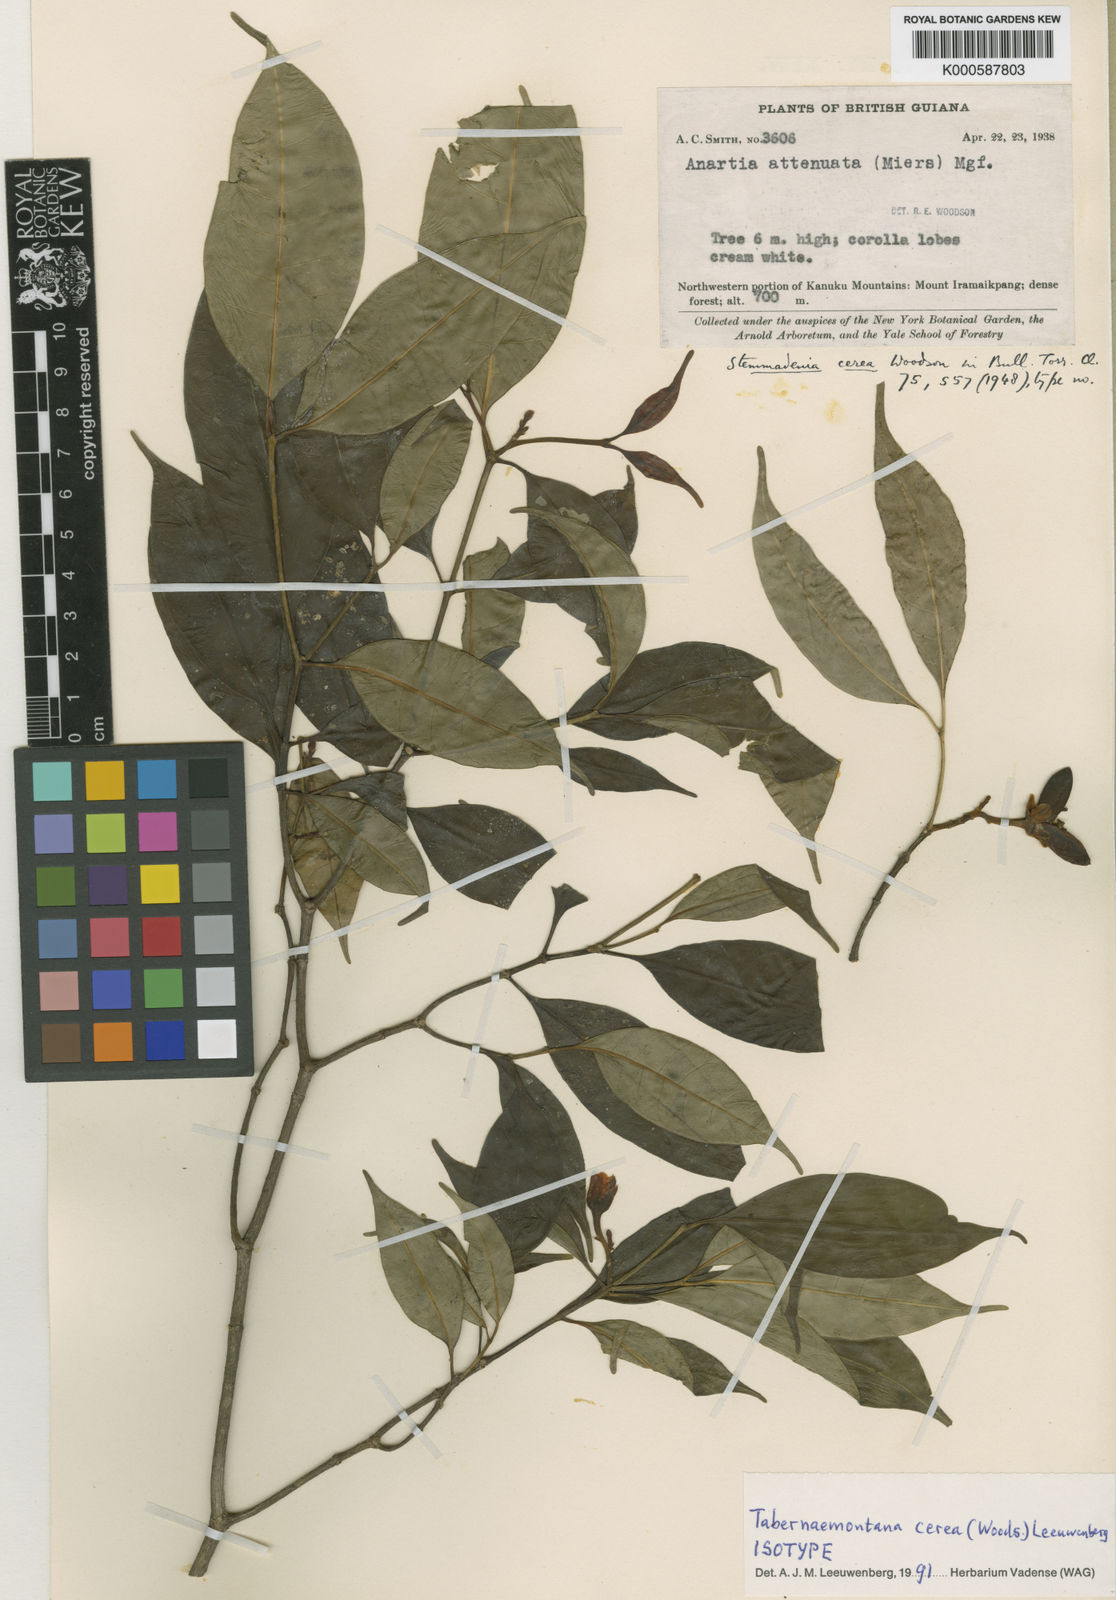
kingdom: Plantae
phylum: Tracheophyta
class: Magnoliopsida
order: Gentianales
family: Apocynaceae
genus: Tabernaemontana
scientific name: Tabernaemontana cerea
